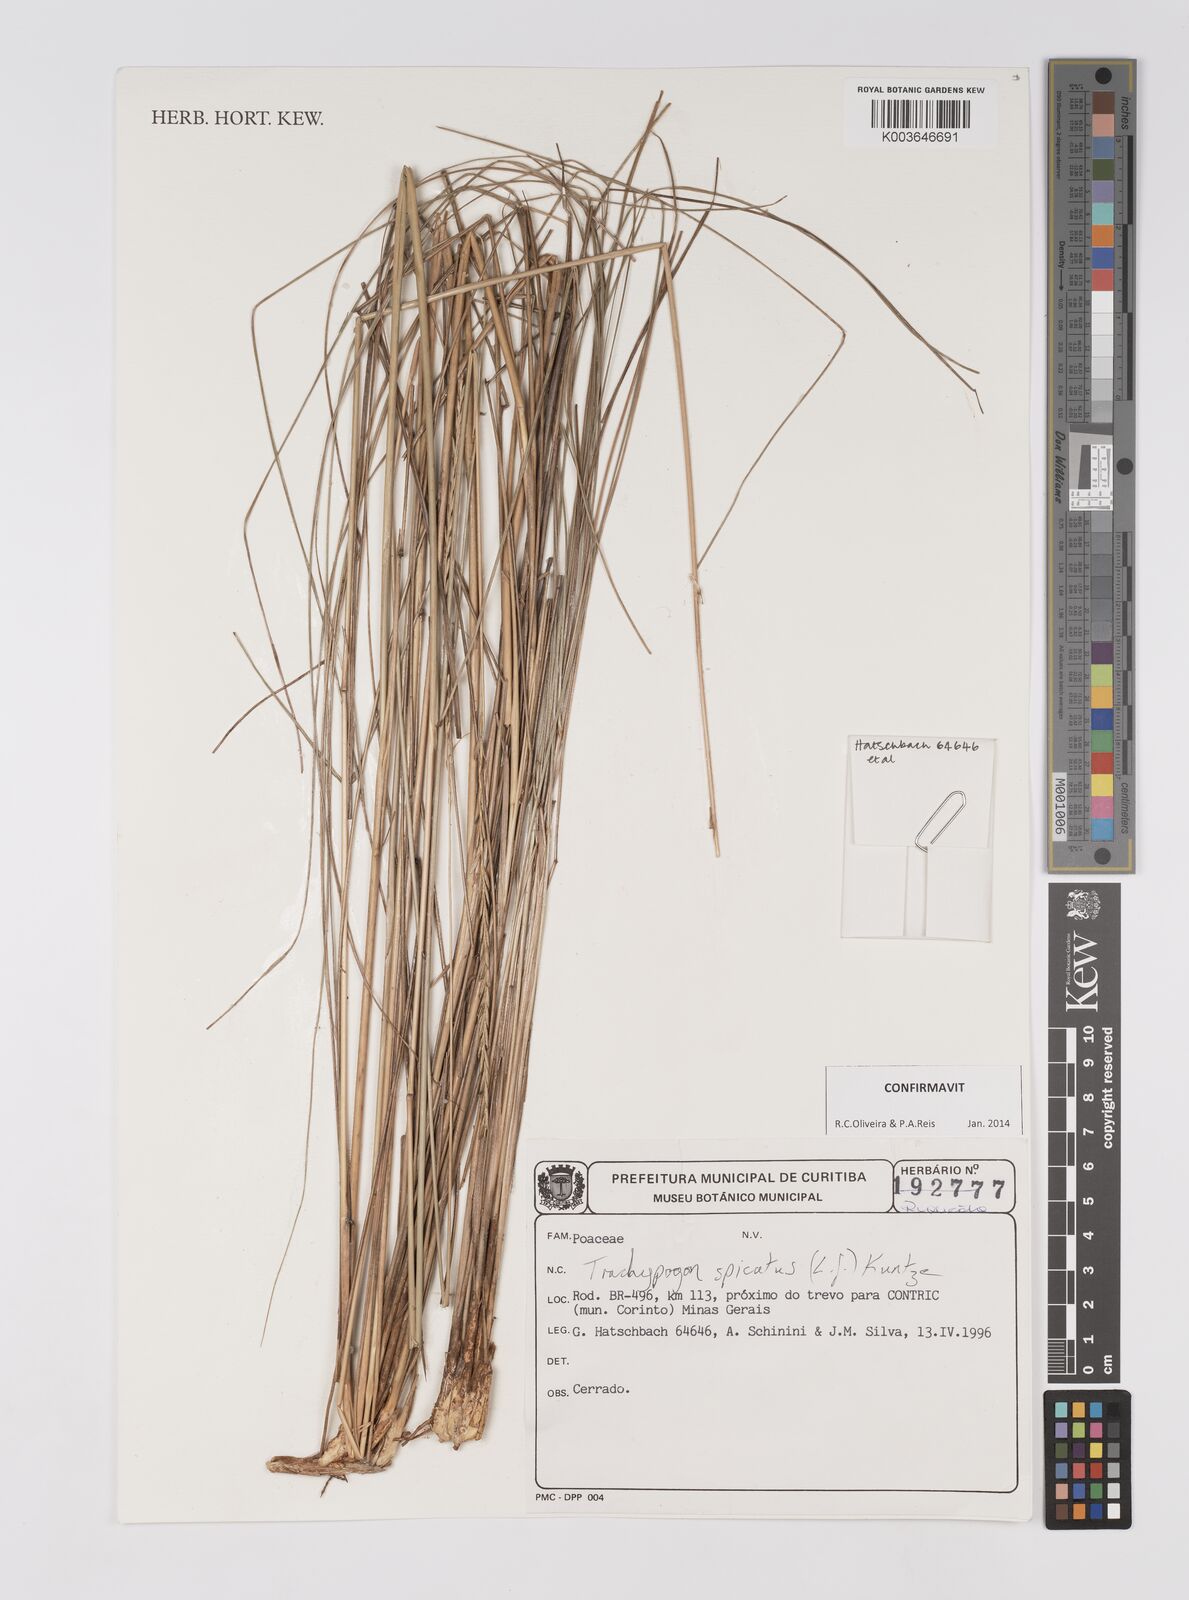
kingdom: Plantae
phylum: Tracheophyta
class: Liliopsida
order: Poales
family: Poaceae
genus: Trachypogon
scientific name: Trachypogon spicatus
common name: Crinkle-awn
